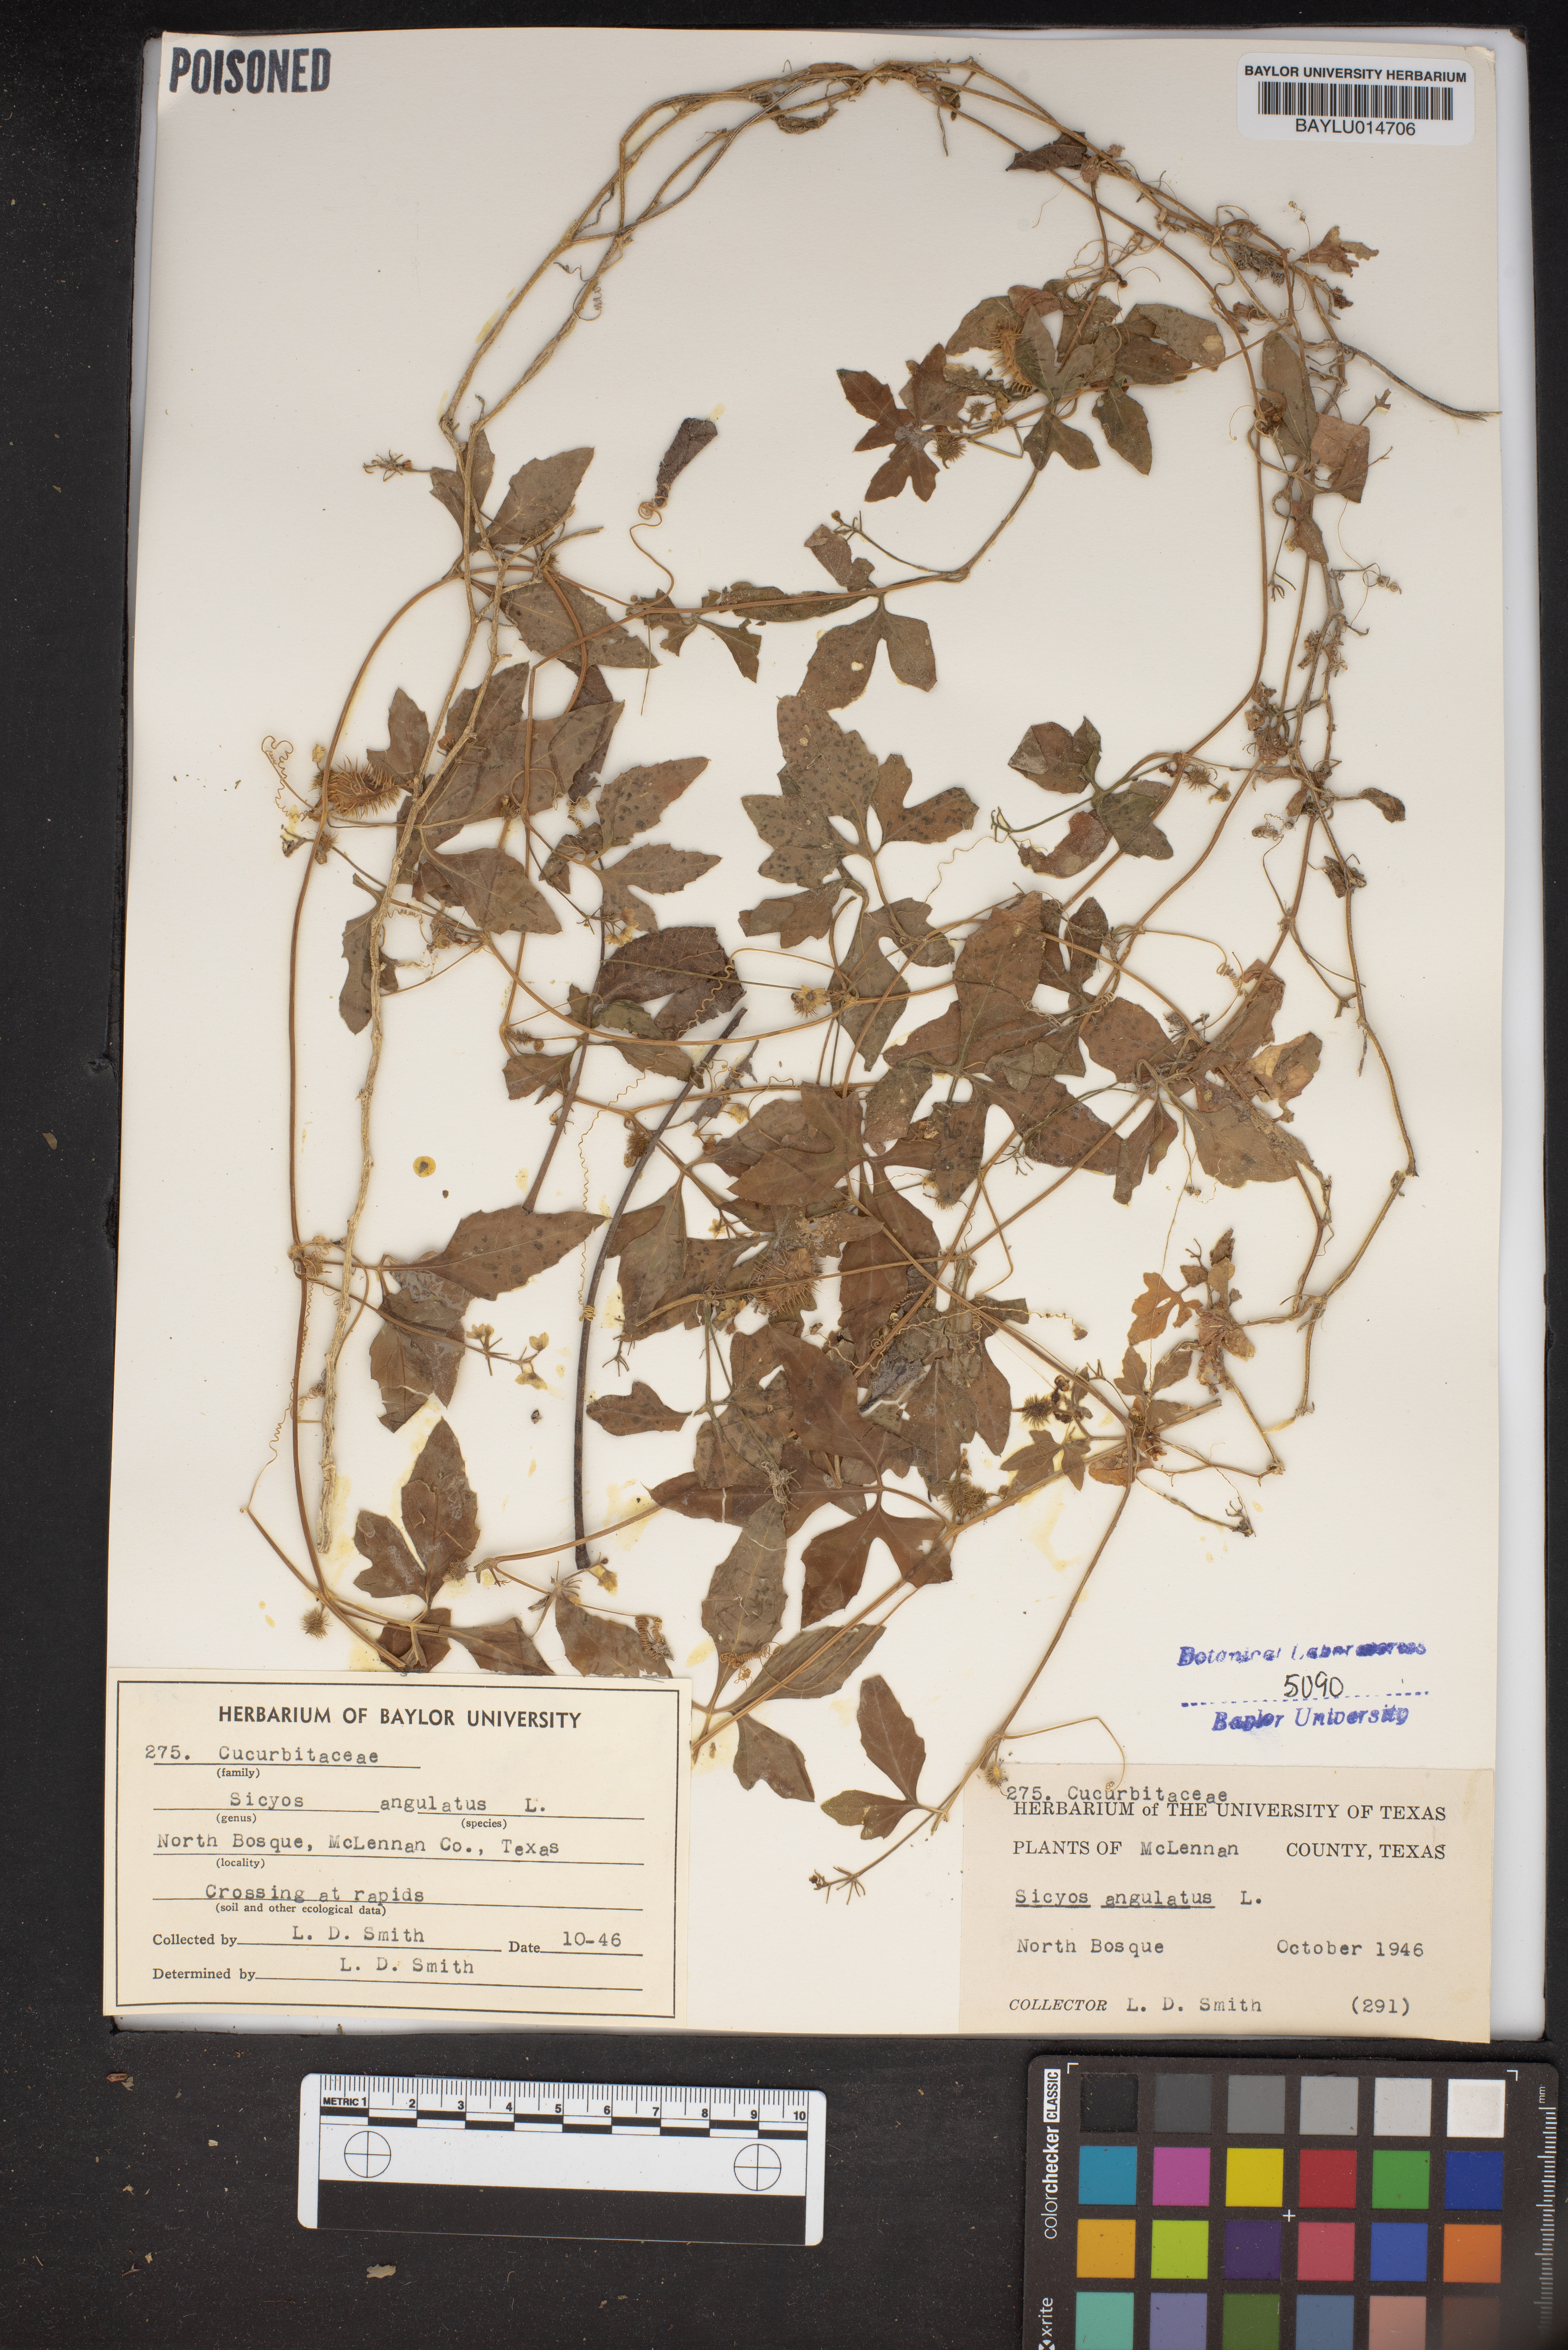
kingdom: Plantae
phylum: Tracheophyta
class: Magnoliopsida
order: Cucurbitales
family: Cucurbitaceae
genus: Sicyos
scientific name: Sicyos angulatus
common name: Angled burr cucumber
